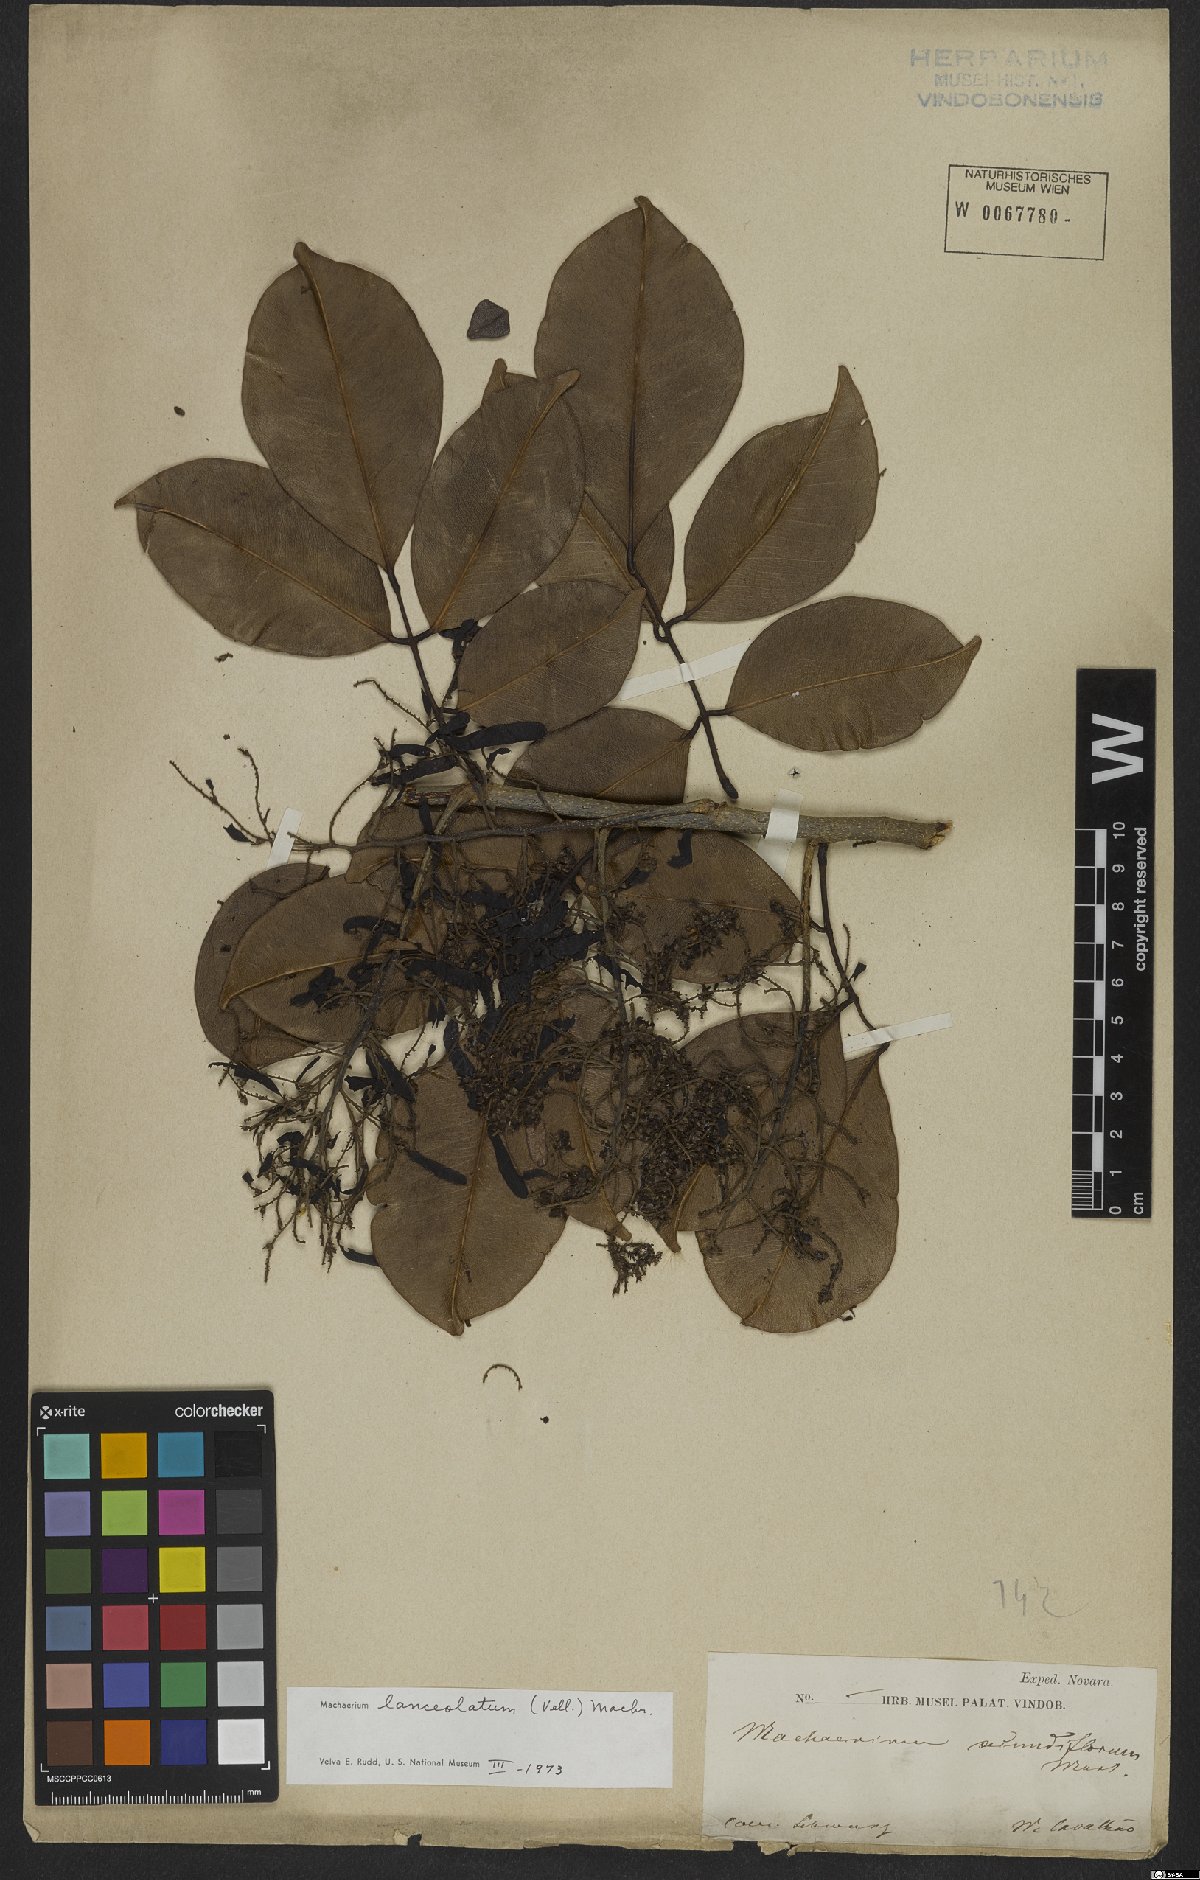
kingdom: Plantae
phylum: Tracheophyta
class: Magnoliopsida
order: Fabales
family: Fabaceae
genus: Machaerium
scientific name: Machaerium lanceolatum
